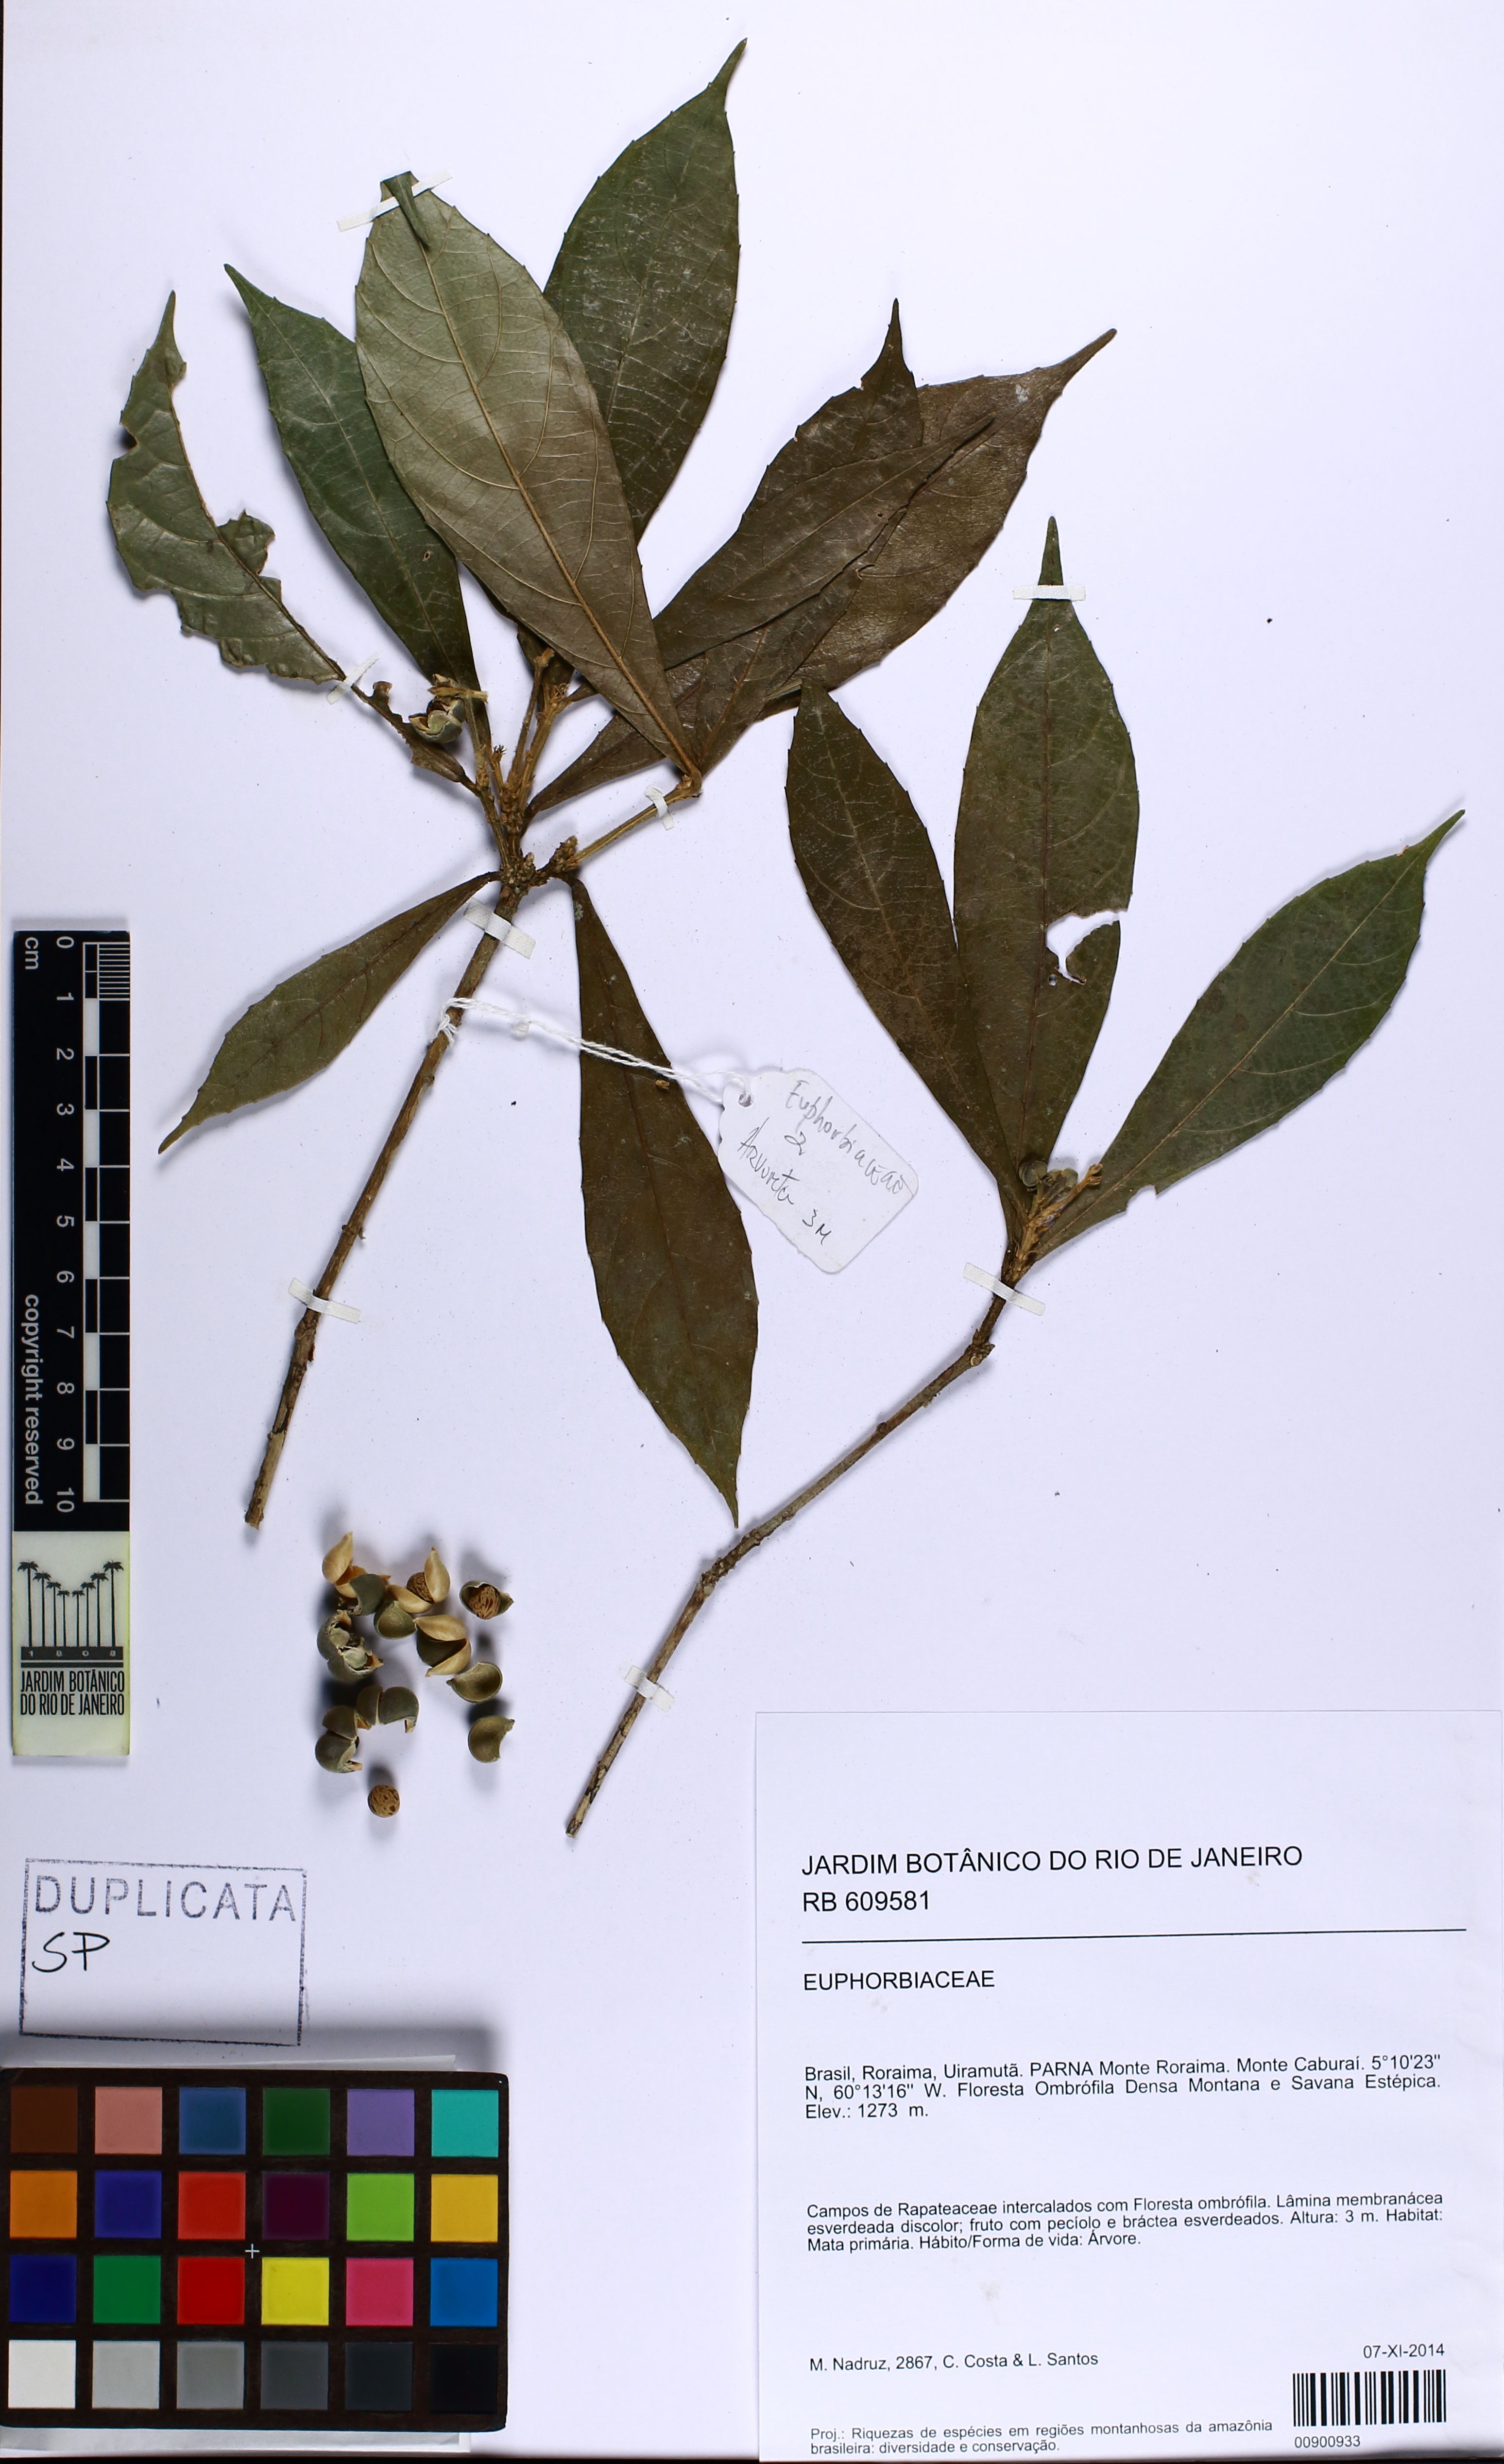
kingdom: Plantae
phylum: Tracheophyta
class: Magnoliopsida
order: Malpighiales
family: Euphorbiaceae
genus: Bernardia
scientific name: Bernardia
